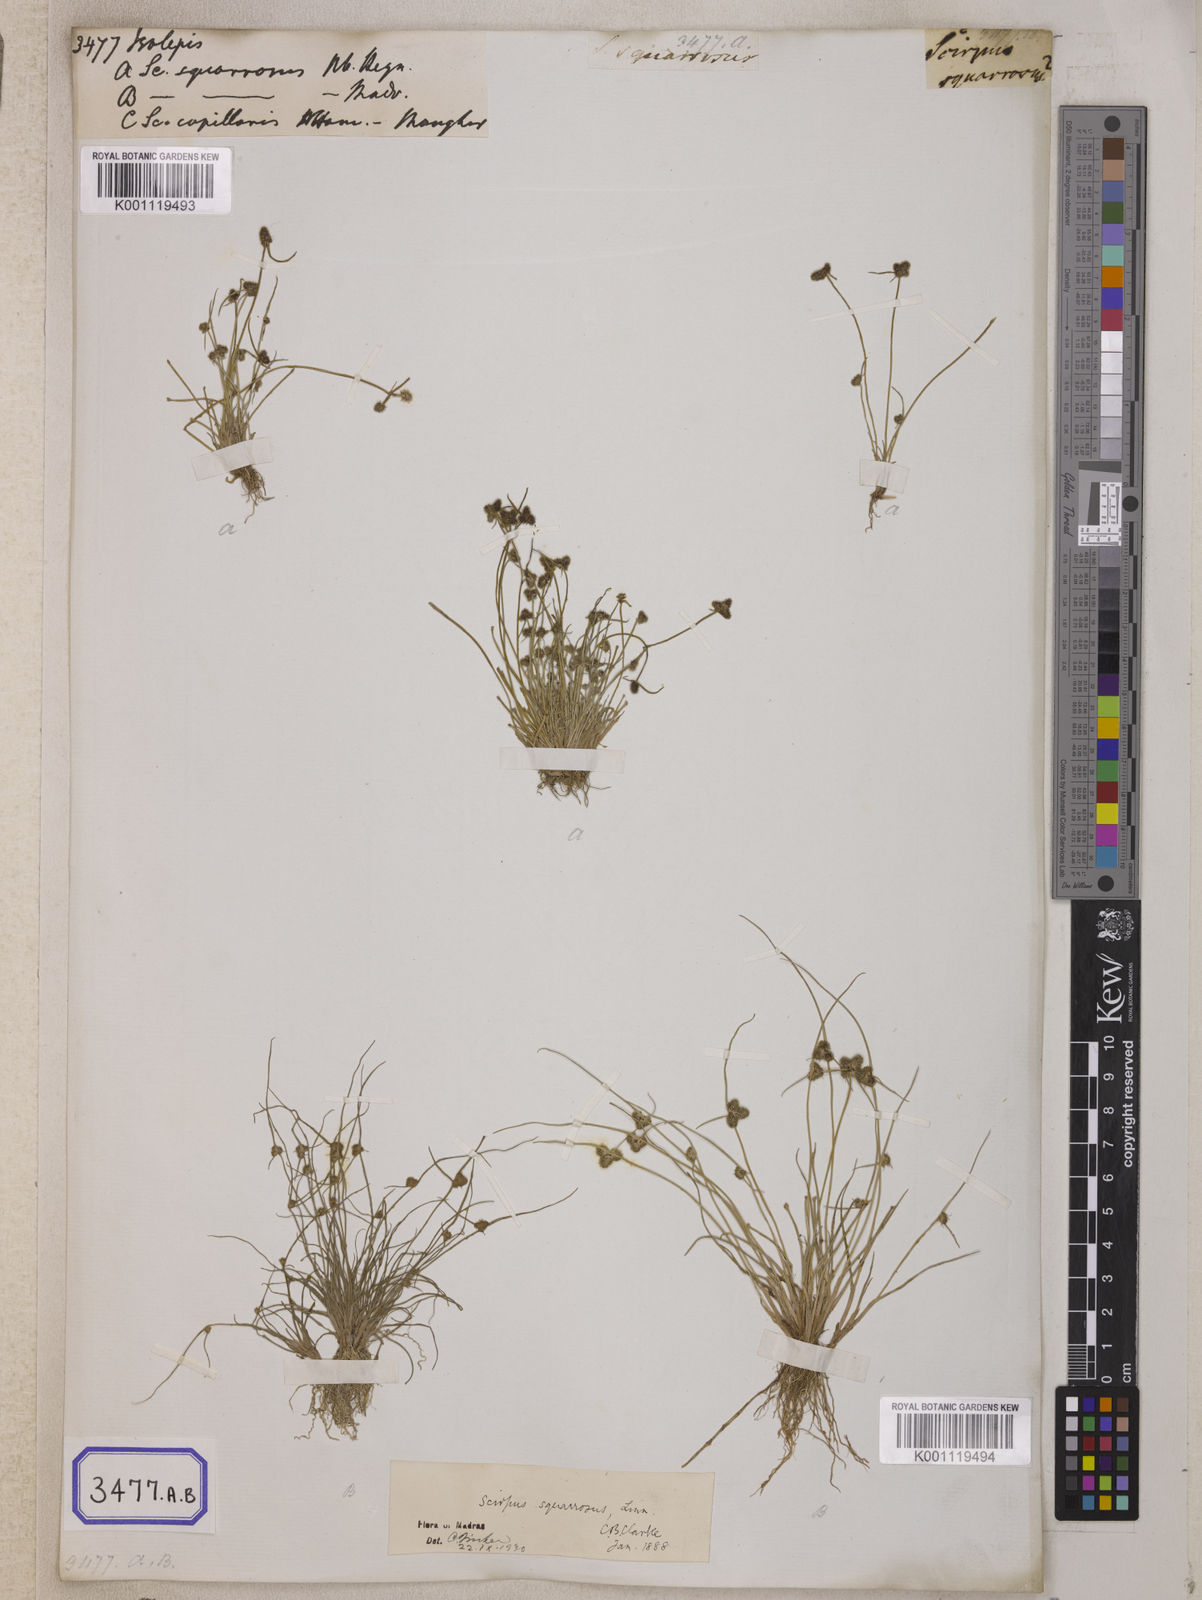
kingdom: Plantae
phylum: Tracheophyta
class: Liliopsida
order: Poales
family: Cyperaceae
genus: Isolepis
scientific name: Isolepis
